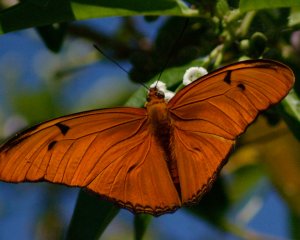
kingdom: Animalia
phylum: Arthropoda
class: Insecta
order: Lepidoptera
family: Nymphalidae
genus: Dryas
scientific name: Dryas iulia
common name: Julia
